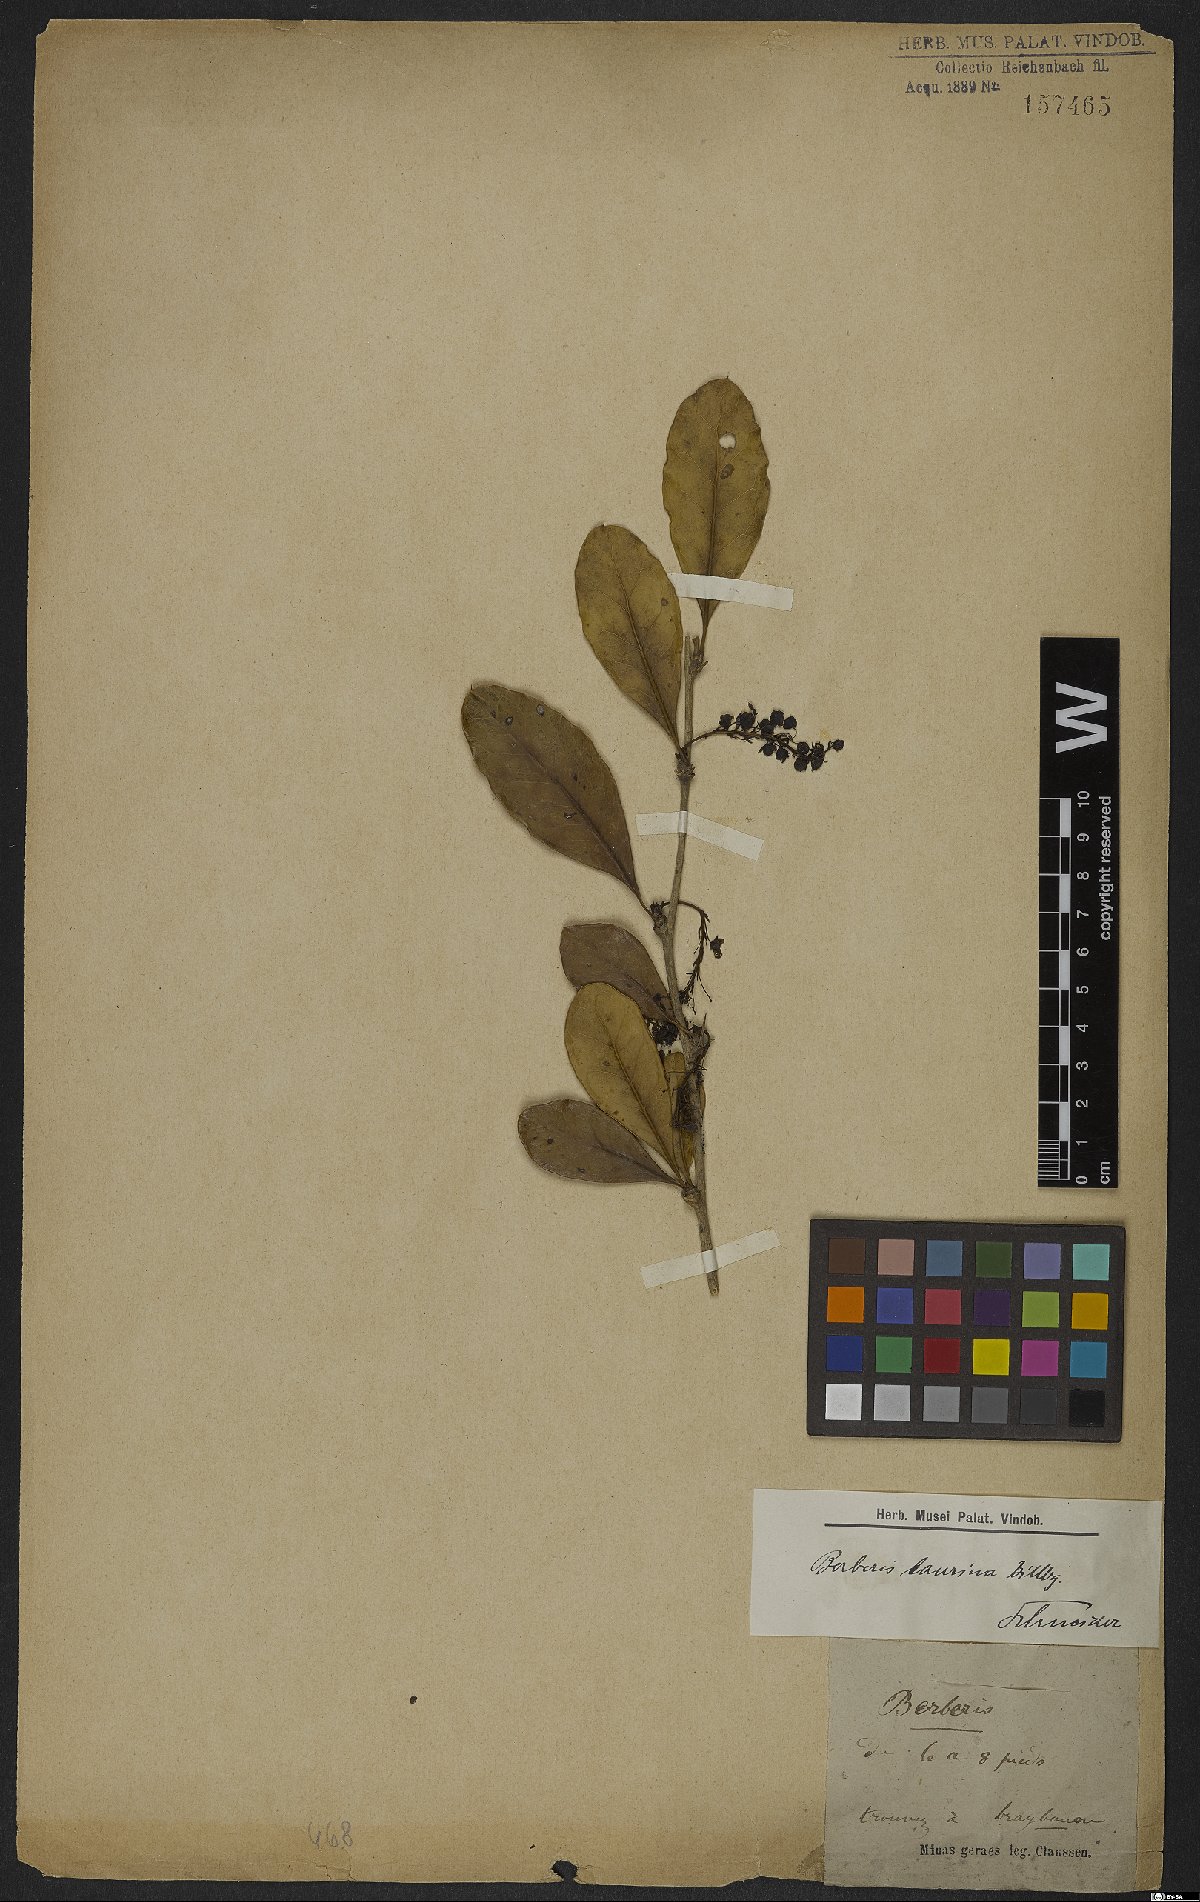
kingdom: Plantae
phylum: Tracheophyta
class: Magnoliopsida
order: Ranunculales
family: Berberidaceae
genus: Berberis
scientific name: Berberis laurina
